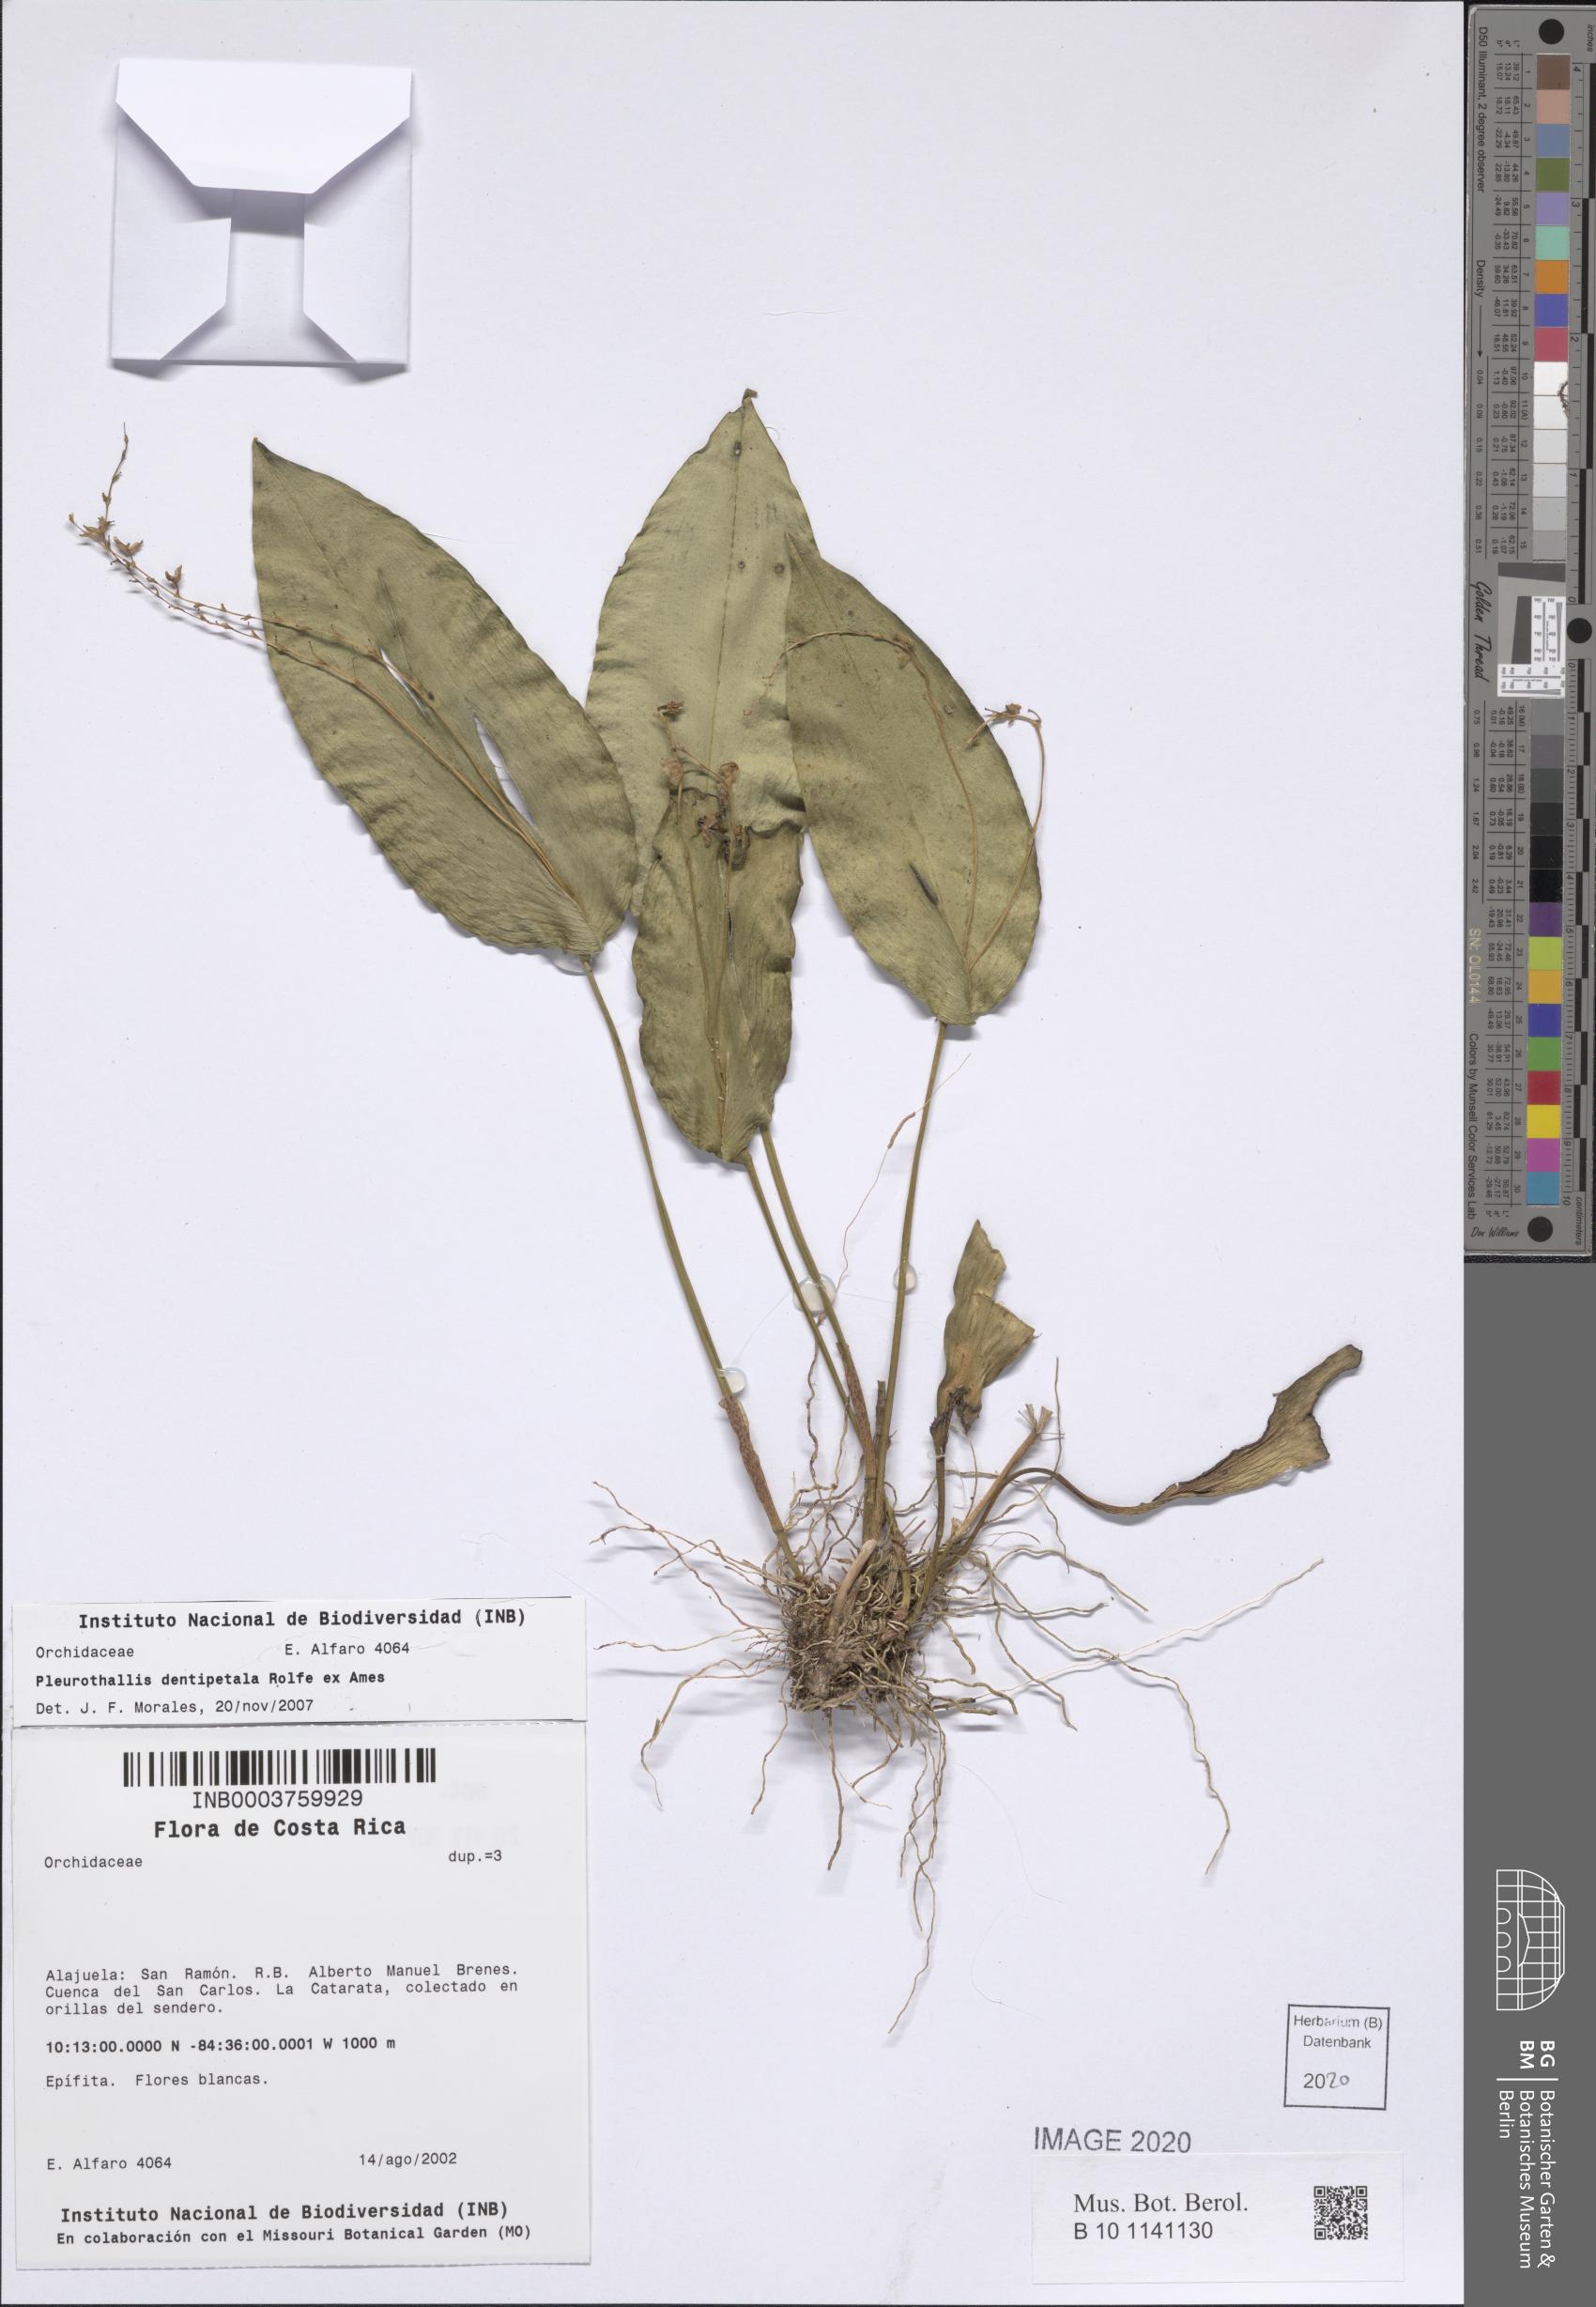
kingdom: Plantae
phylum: Tracheophyta
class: Liliopsida
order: Asparagales
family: Orchidaceae
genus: Pleurothallis
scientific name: Pleurothallis dentipetala
